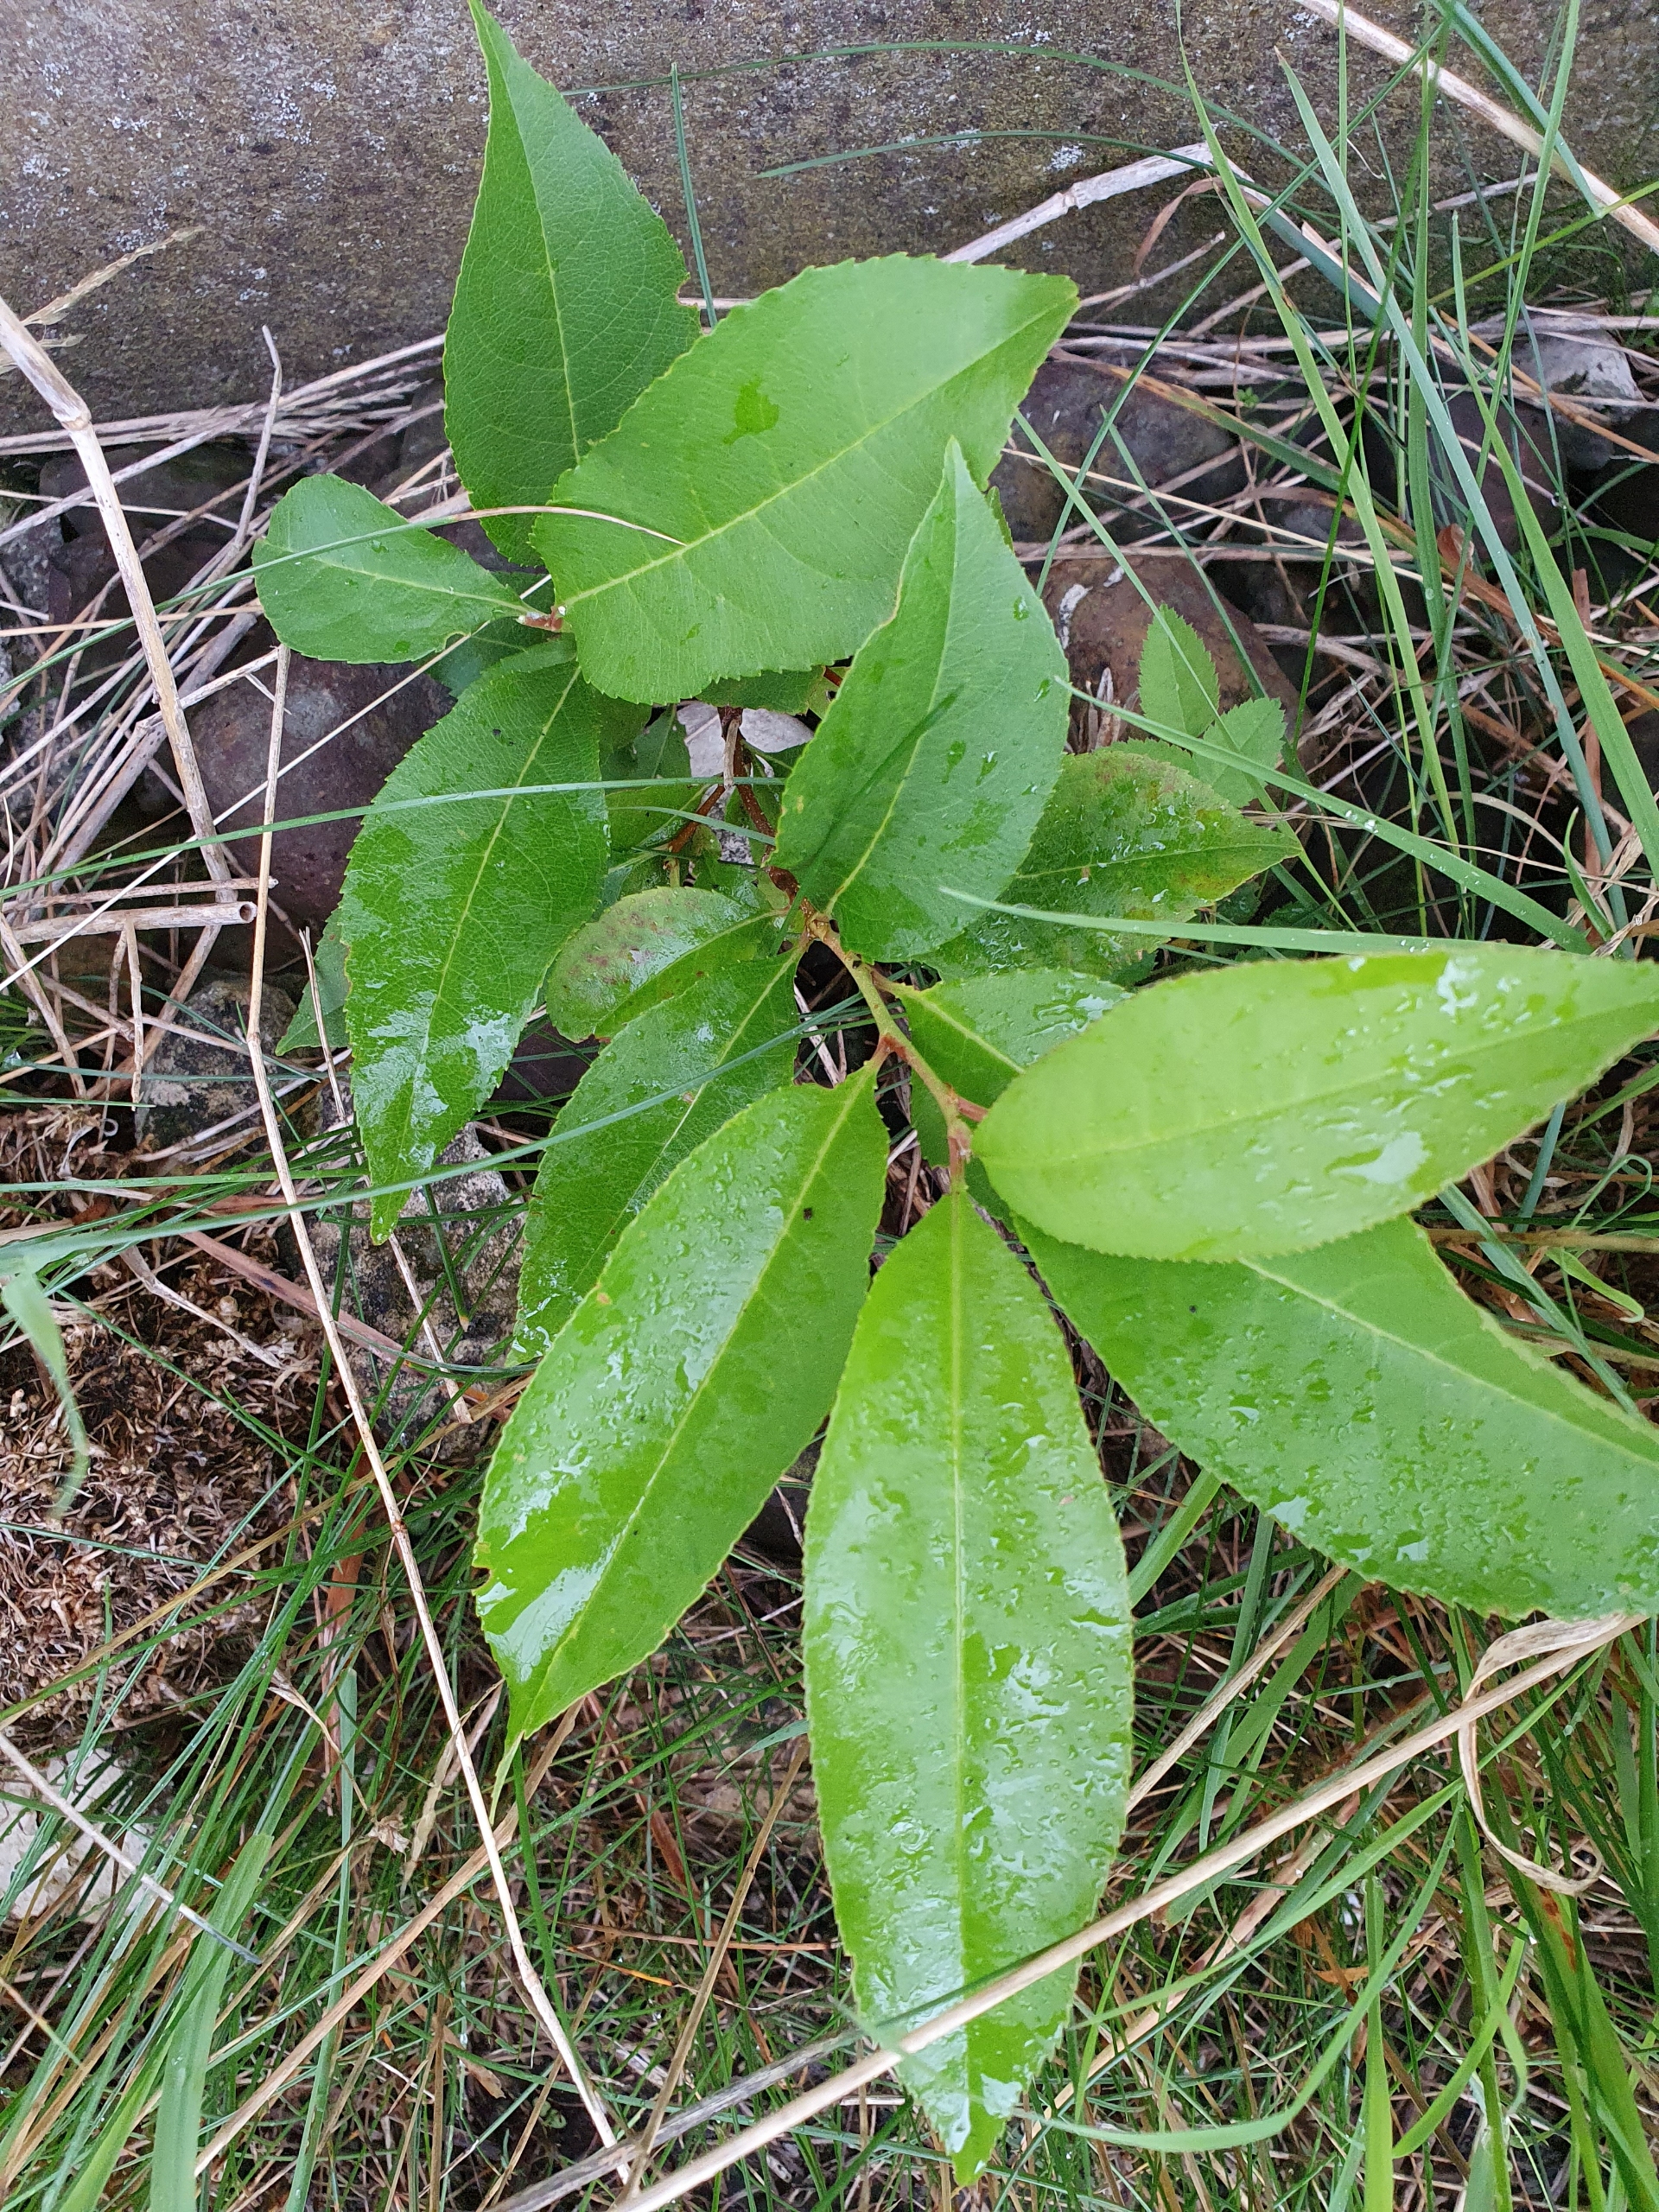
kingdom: Plantae
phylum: Tracheophyta
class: Magnoliopsida
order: Rosales
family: Rosaceae
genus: Prunus
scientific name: Prunus serotina
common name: Glansbladet hæg
